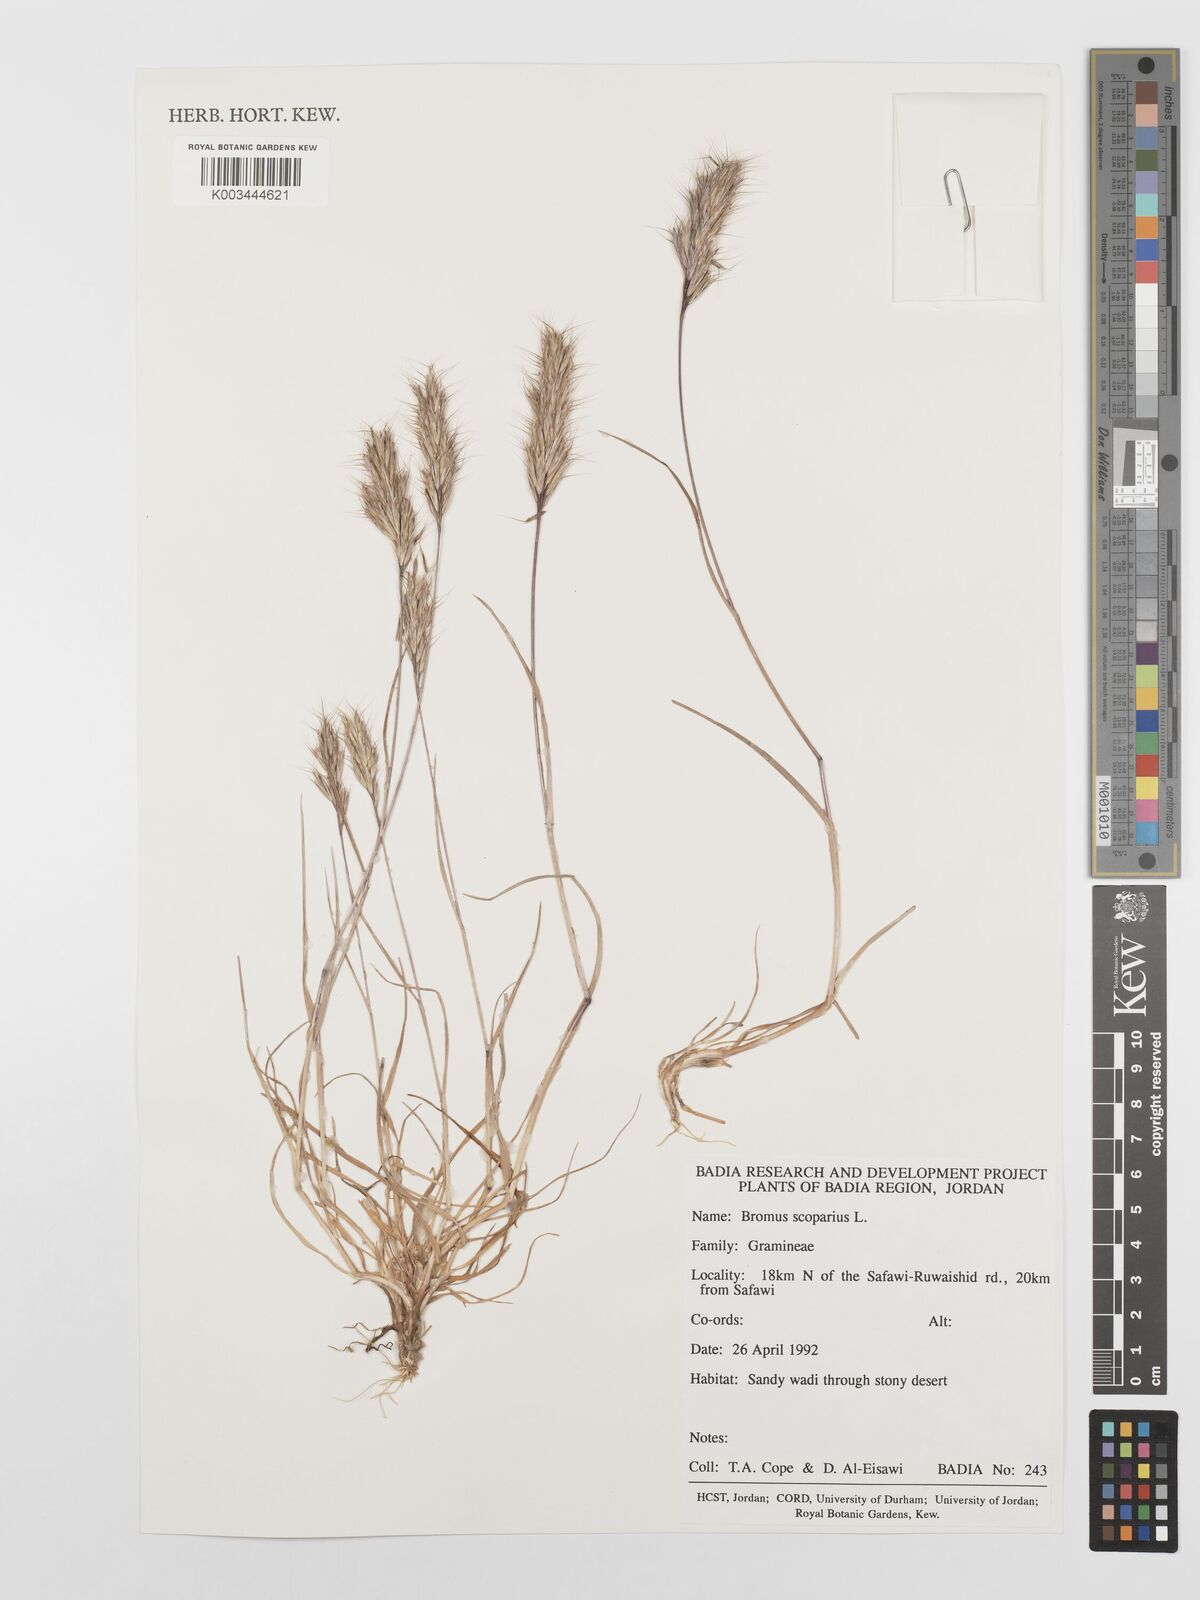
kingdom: Plantae
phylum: Tracheophyta
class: Liliopsida
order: Poales
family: Poaceae
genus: Bromus
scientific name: Bromus scoparius
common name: Broom brome
